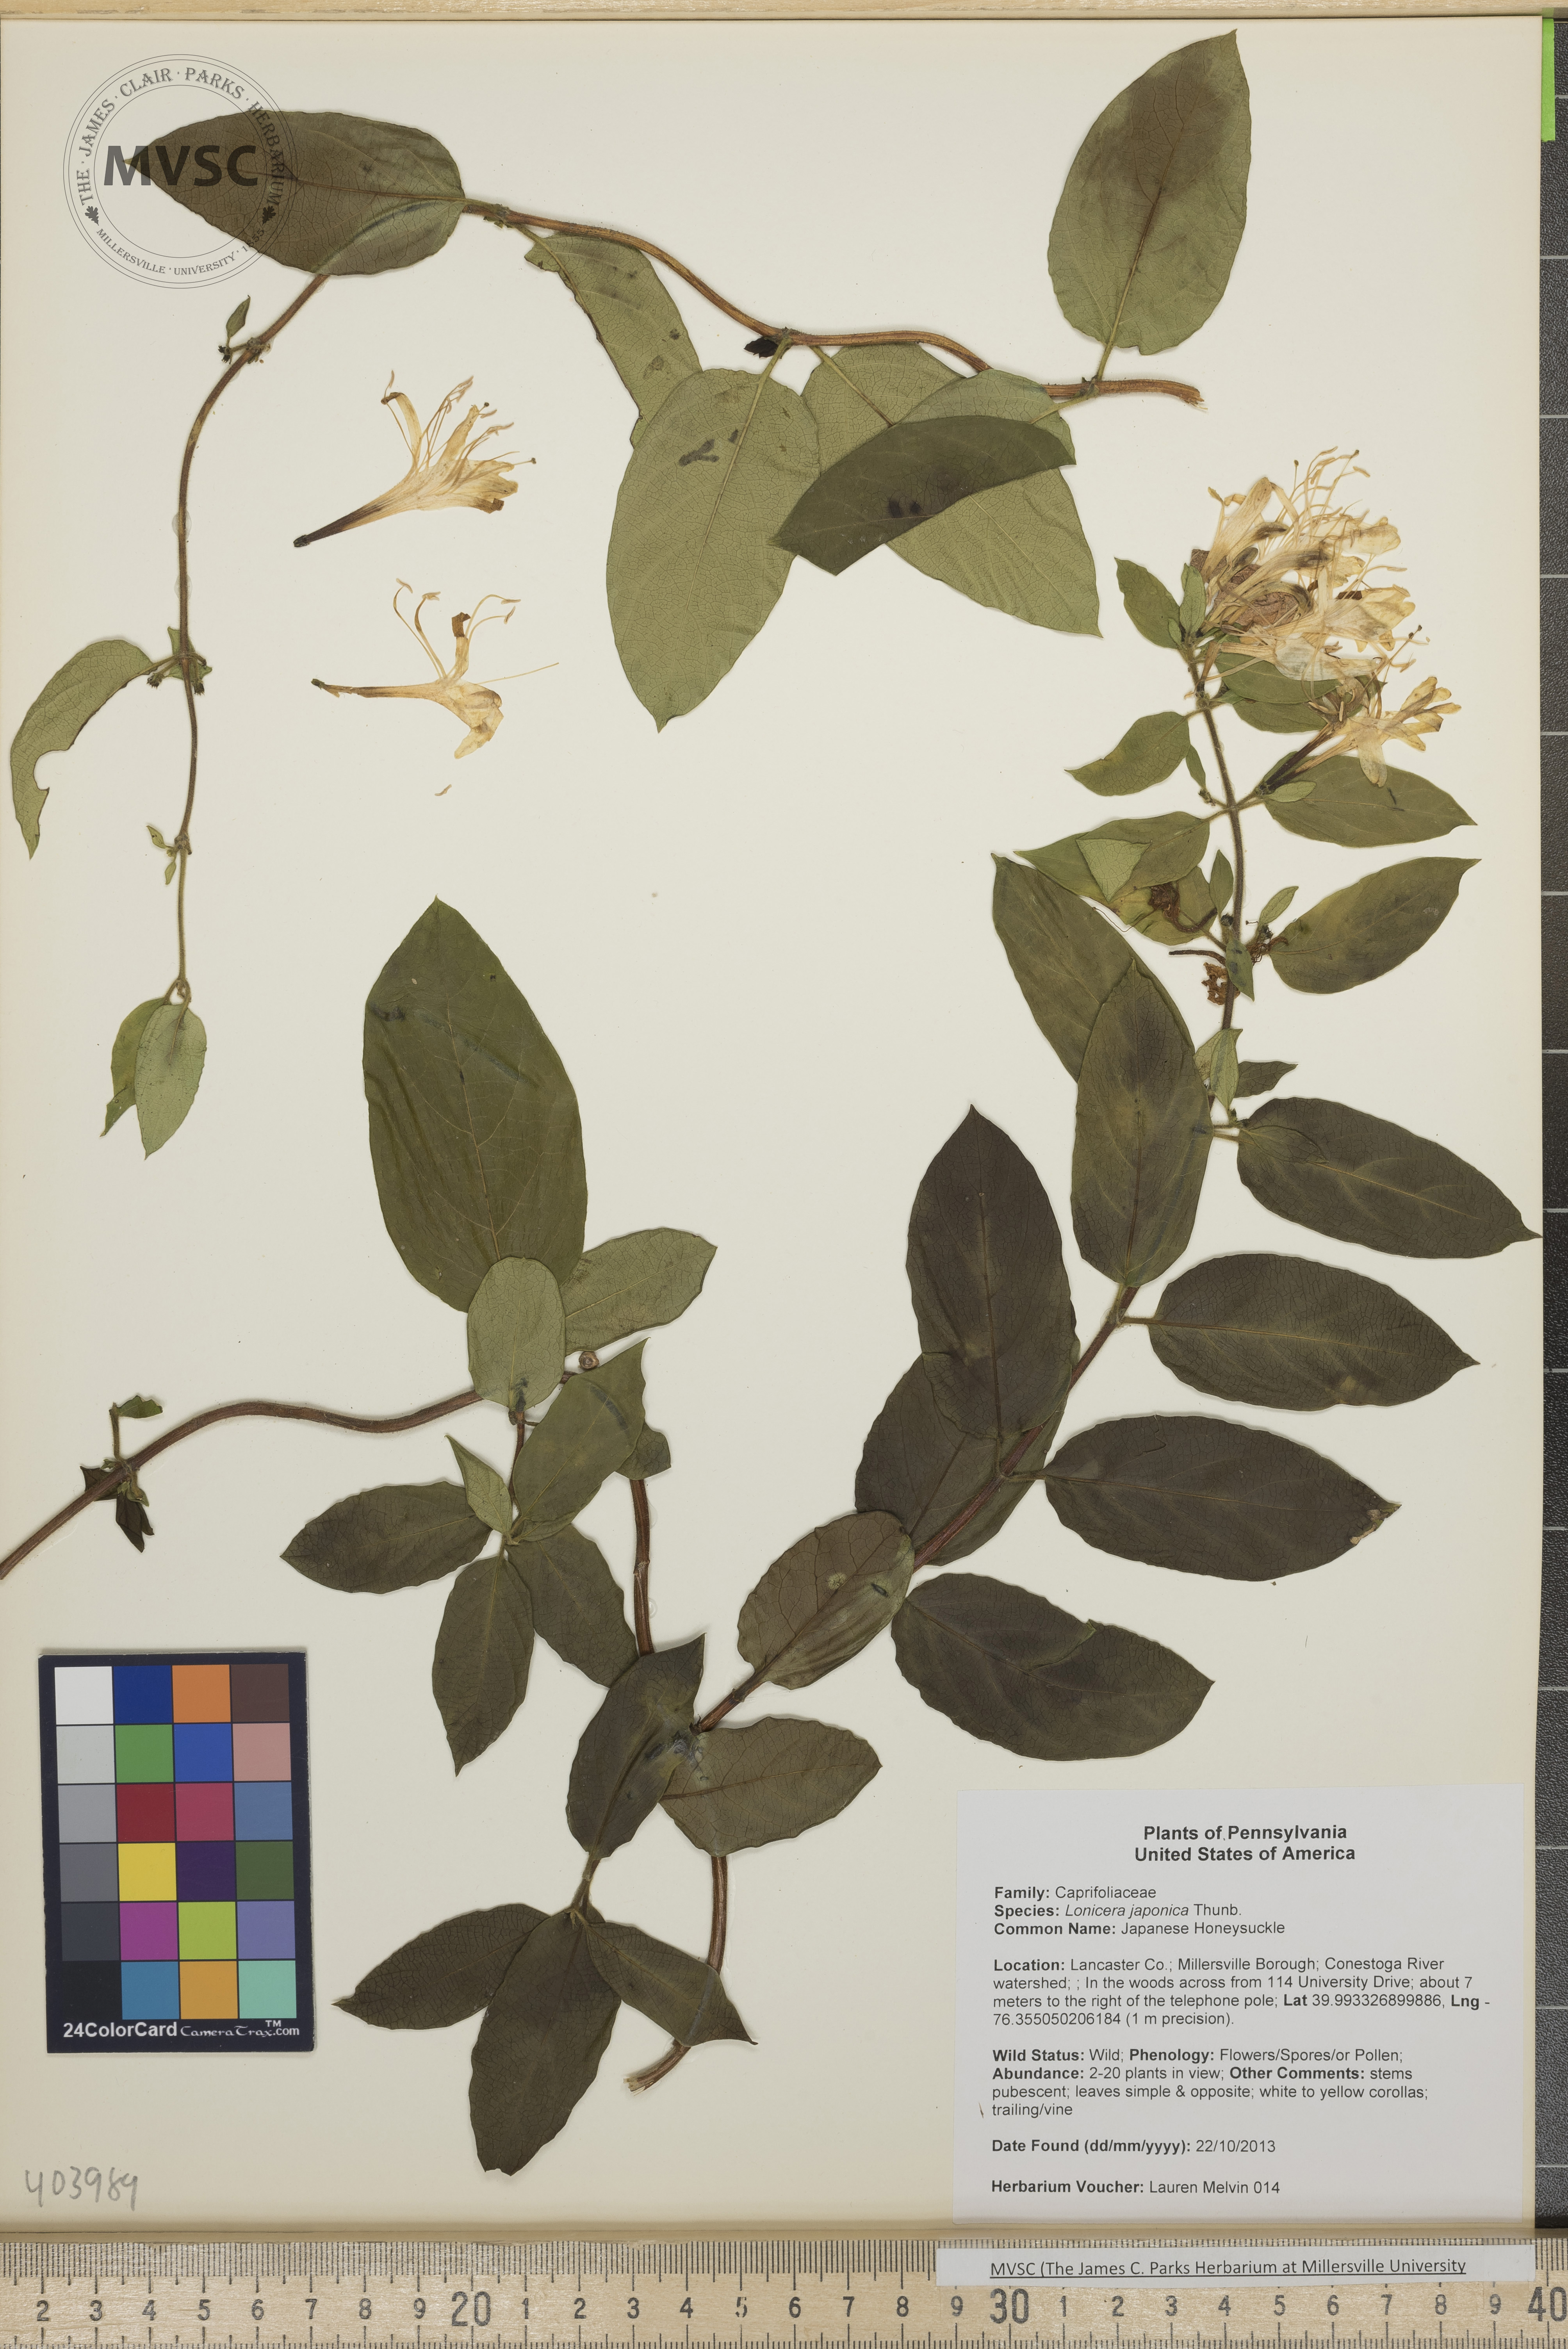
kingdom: Plantae
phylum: Tracheophyta
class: Magnoliopsida
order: Dipsacales
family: Caprifoliaceae
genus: Lonicera
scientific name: Lonicera japonica
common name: Japanese Honeysuckle
